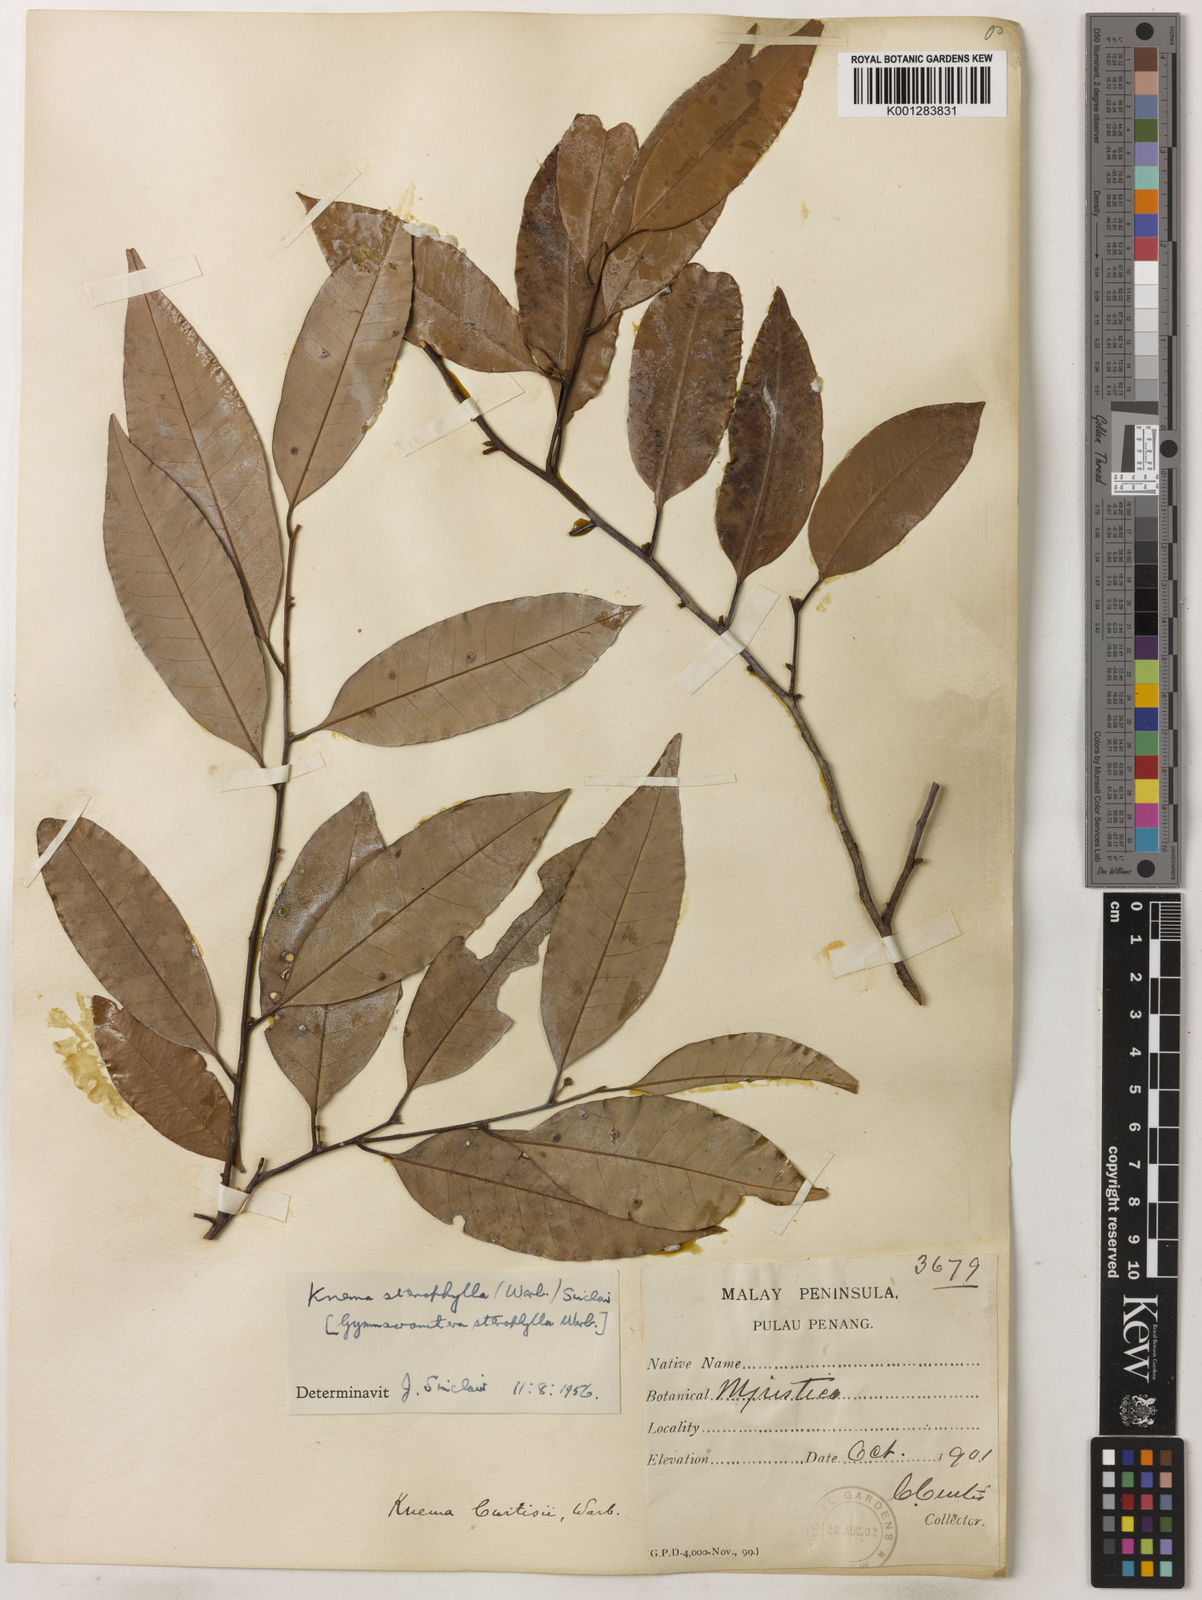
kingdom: Plantae
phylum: Tracheophyta
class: Magnoliopsida
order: Magnoliales
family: Myristicaceae
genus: Knema
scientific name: Knema stenophylla
